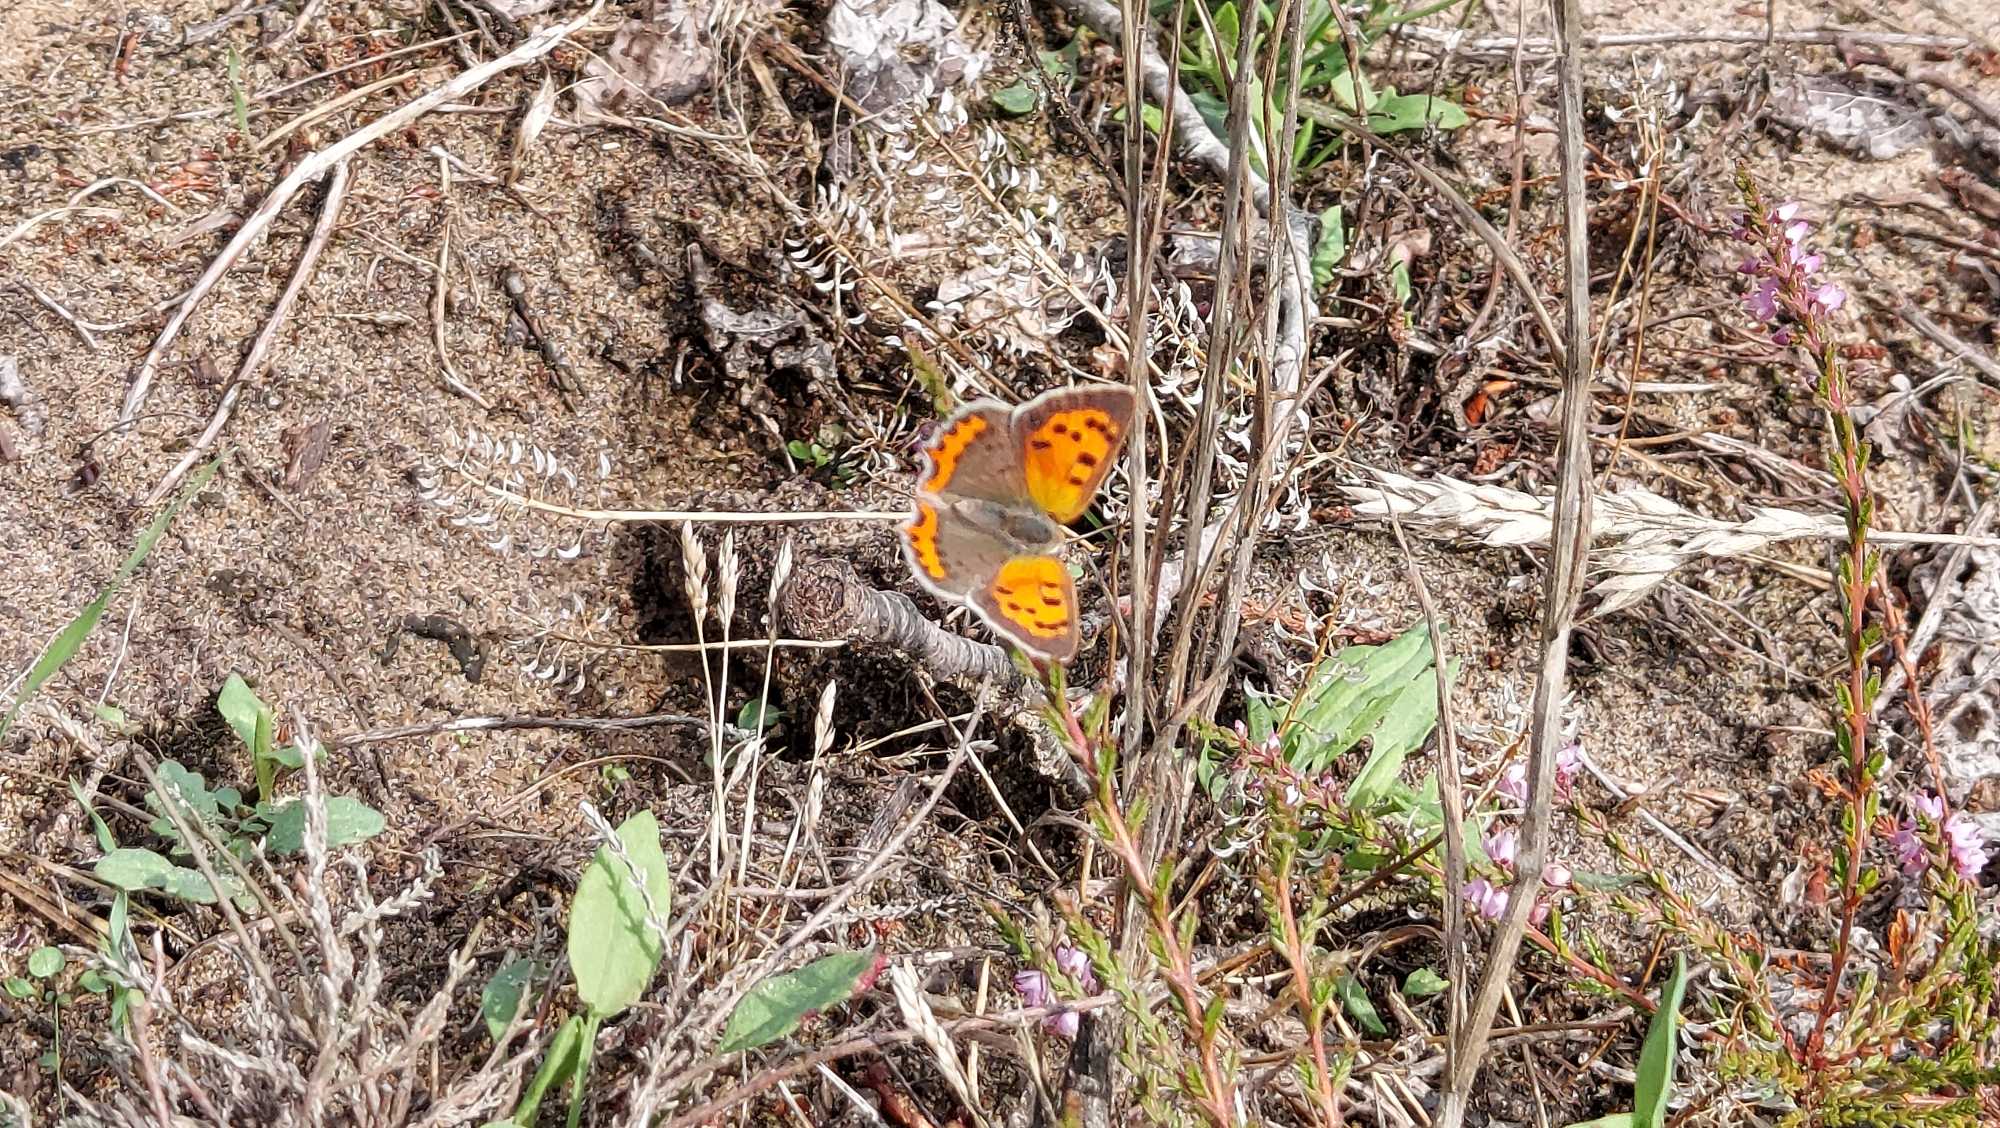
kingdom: Animalia
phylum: Arthropoda
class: Insecta
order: Lepidoptera
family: Lycaenidae
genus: Lycaena
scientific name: Lycaena phlaeas
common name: Lille ildfugl
